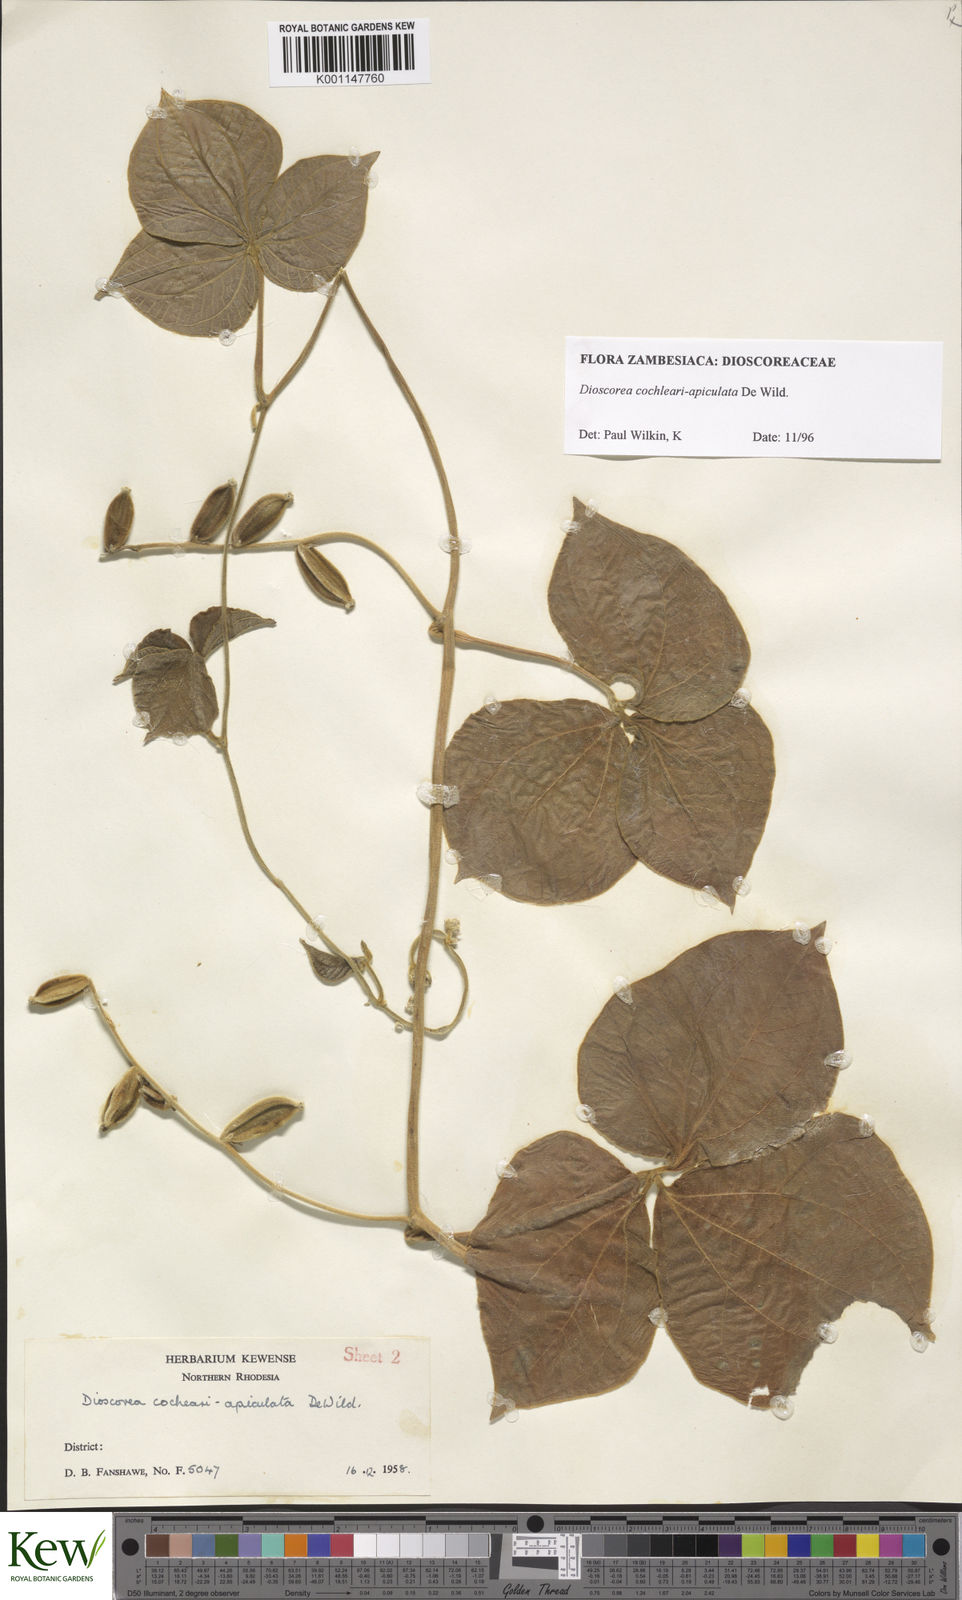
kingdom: Plantae
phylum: Tracheophyta
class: Liliopsida
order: Dioscoreales
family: Dioscoreaceae
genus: Dioscorea
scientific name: Dioscorea cochleariapiculata
